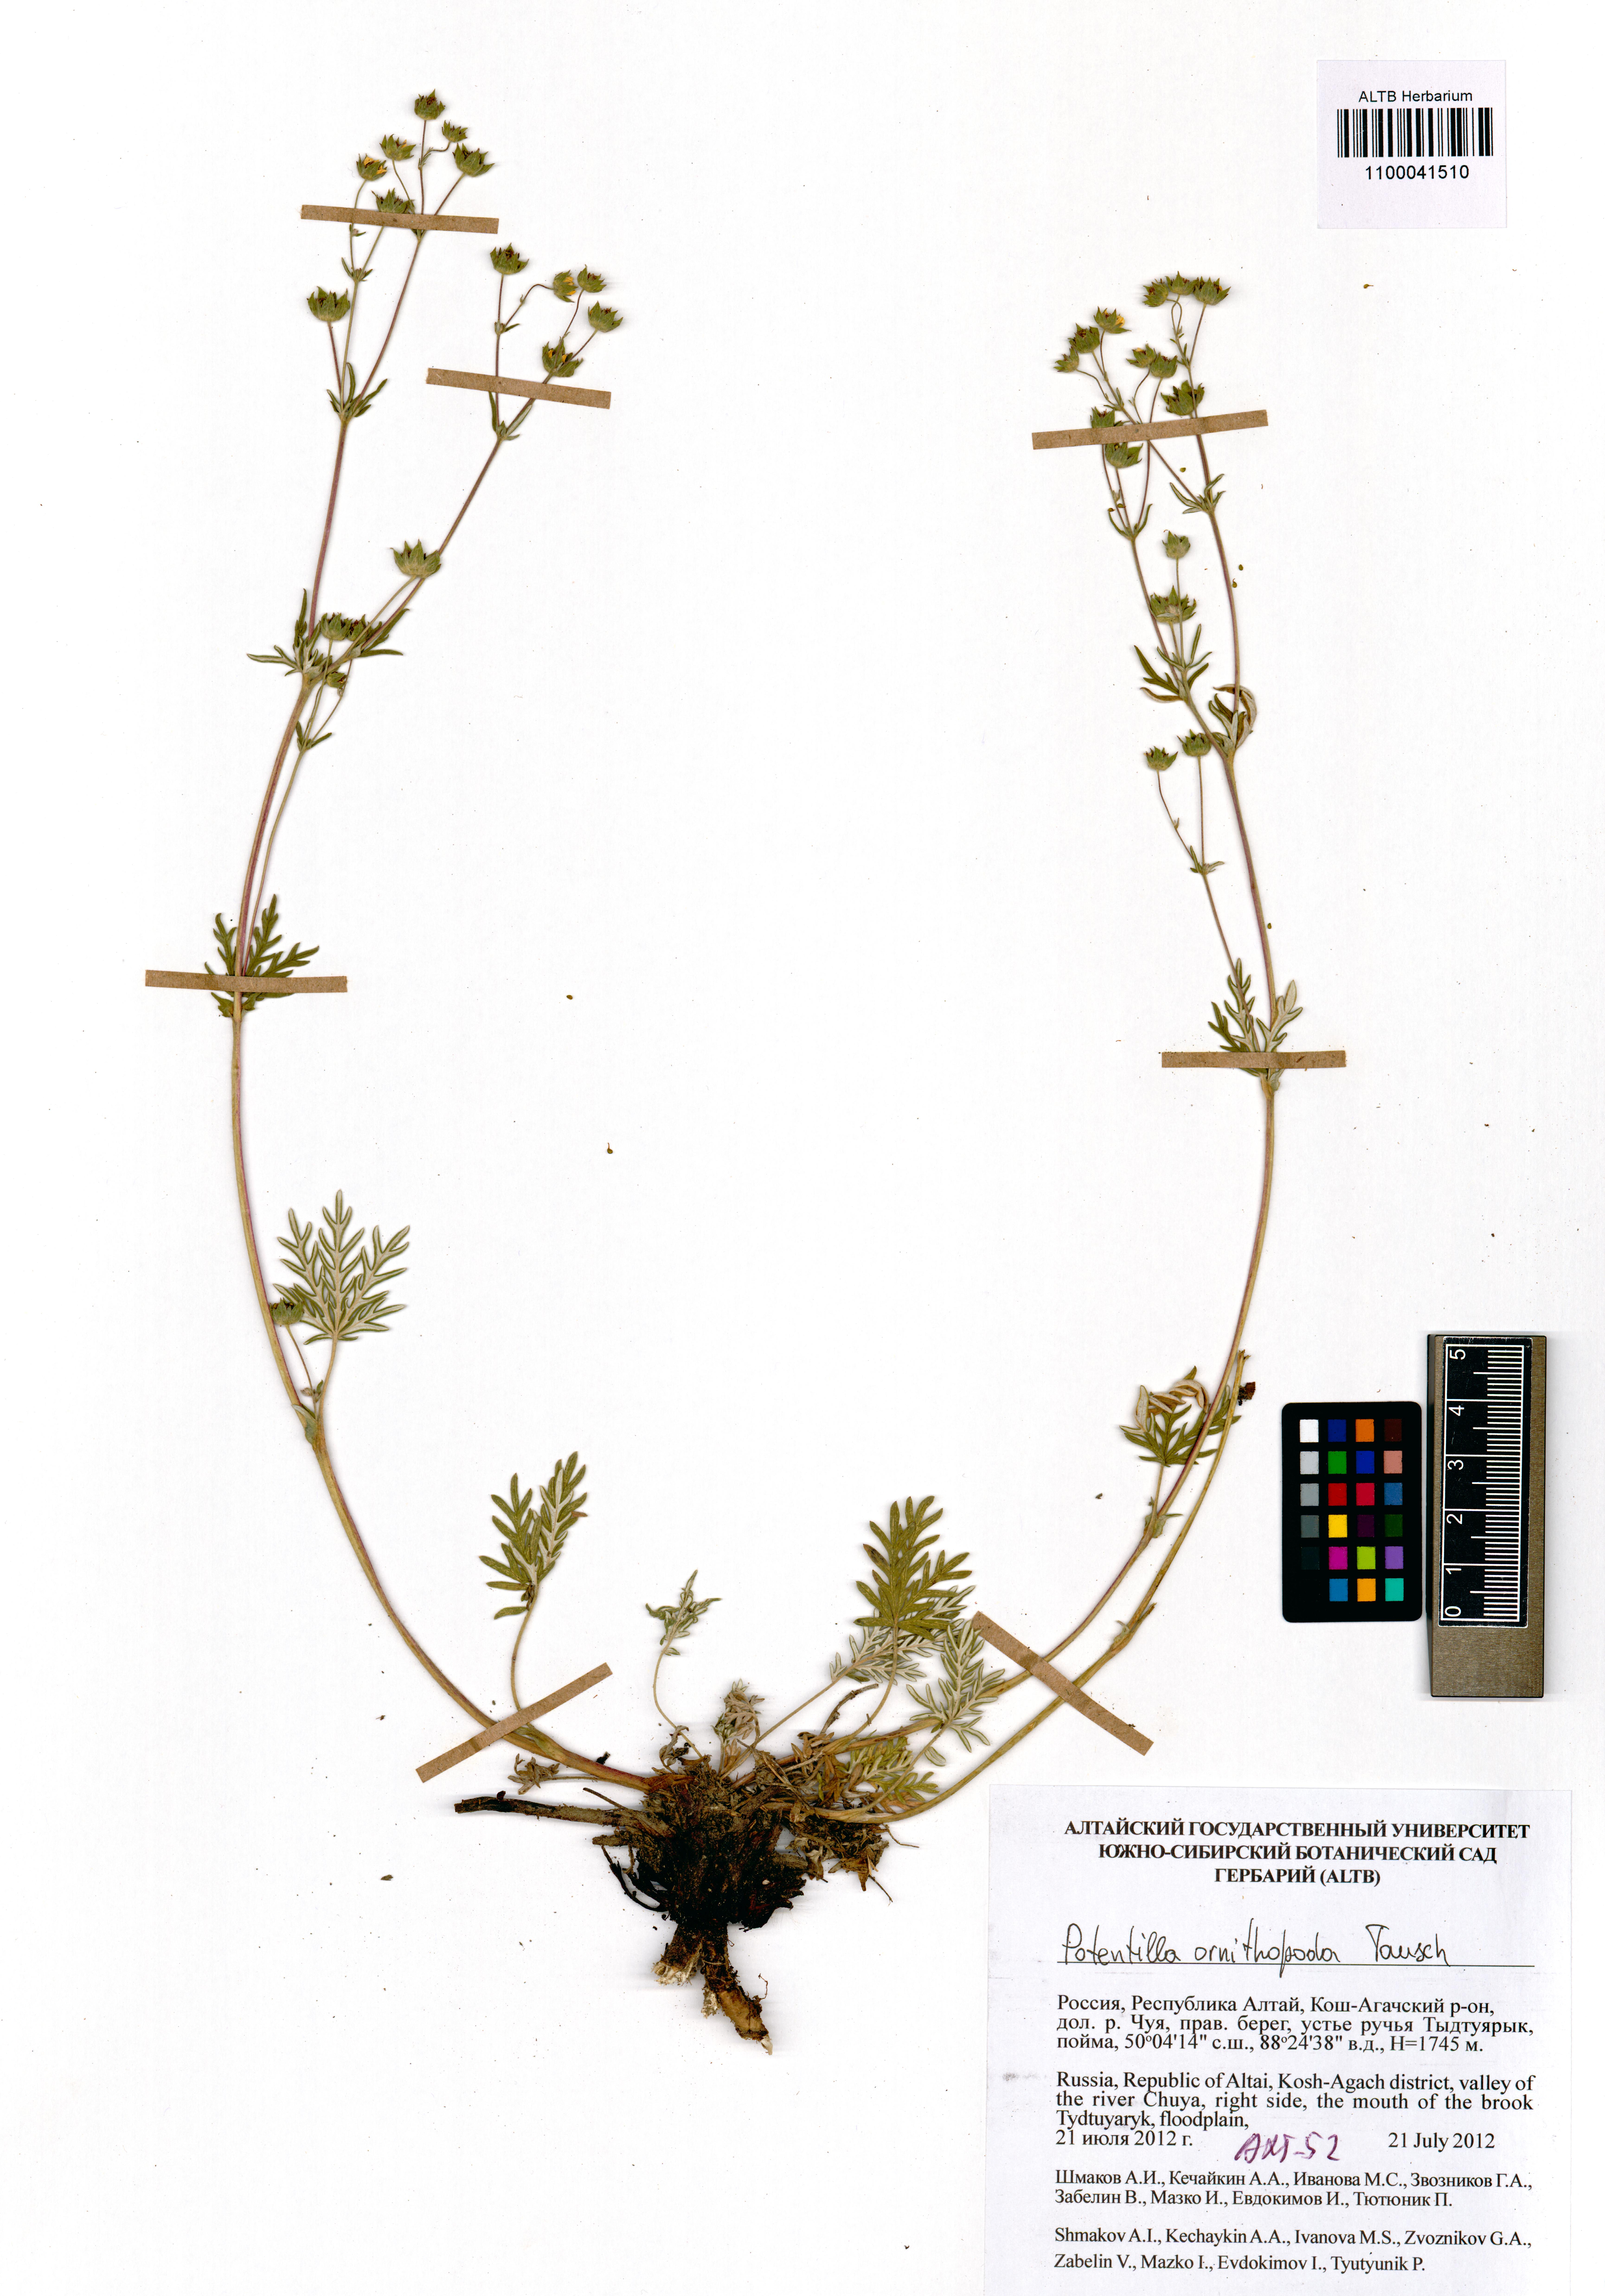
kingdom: Plantae
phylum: Tracheophyta
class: Magnoliopsida
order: Rosales
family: Rosaceae
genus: Potentilla
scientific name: Potentilla ornithopoda
